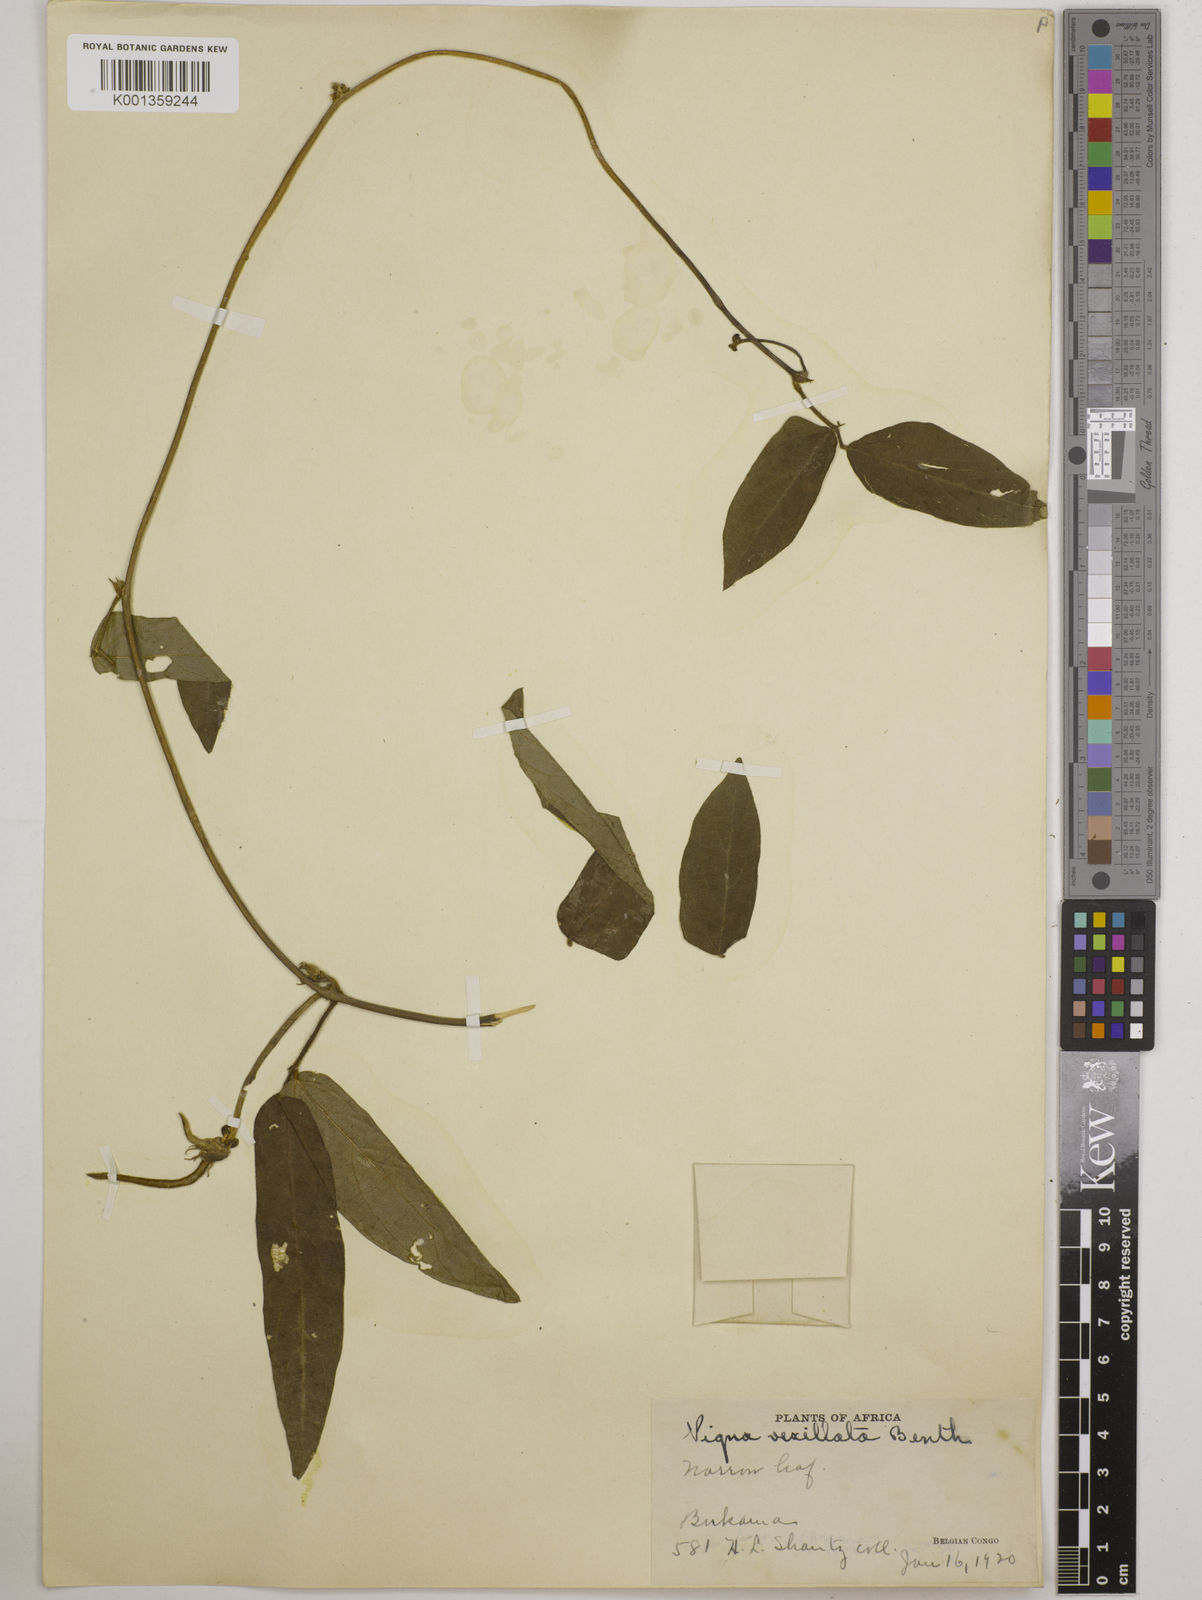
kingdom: Plantae
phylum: Tracheophyta
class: Magnoliopsida
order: Fabales
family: Fabaceae
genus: Vigna
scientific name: Vigna vexillata
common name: Zombi pea
